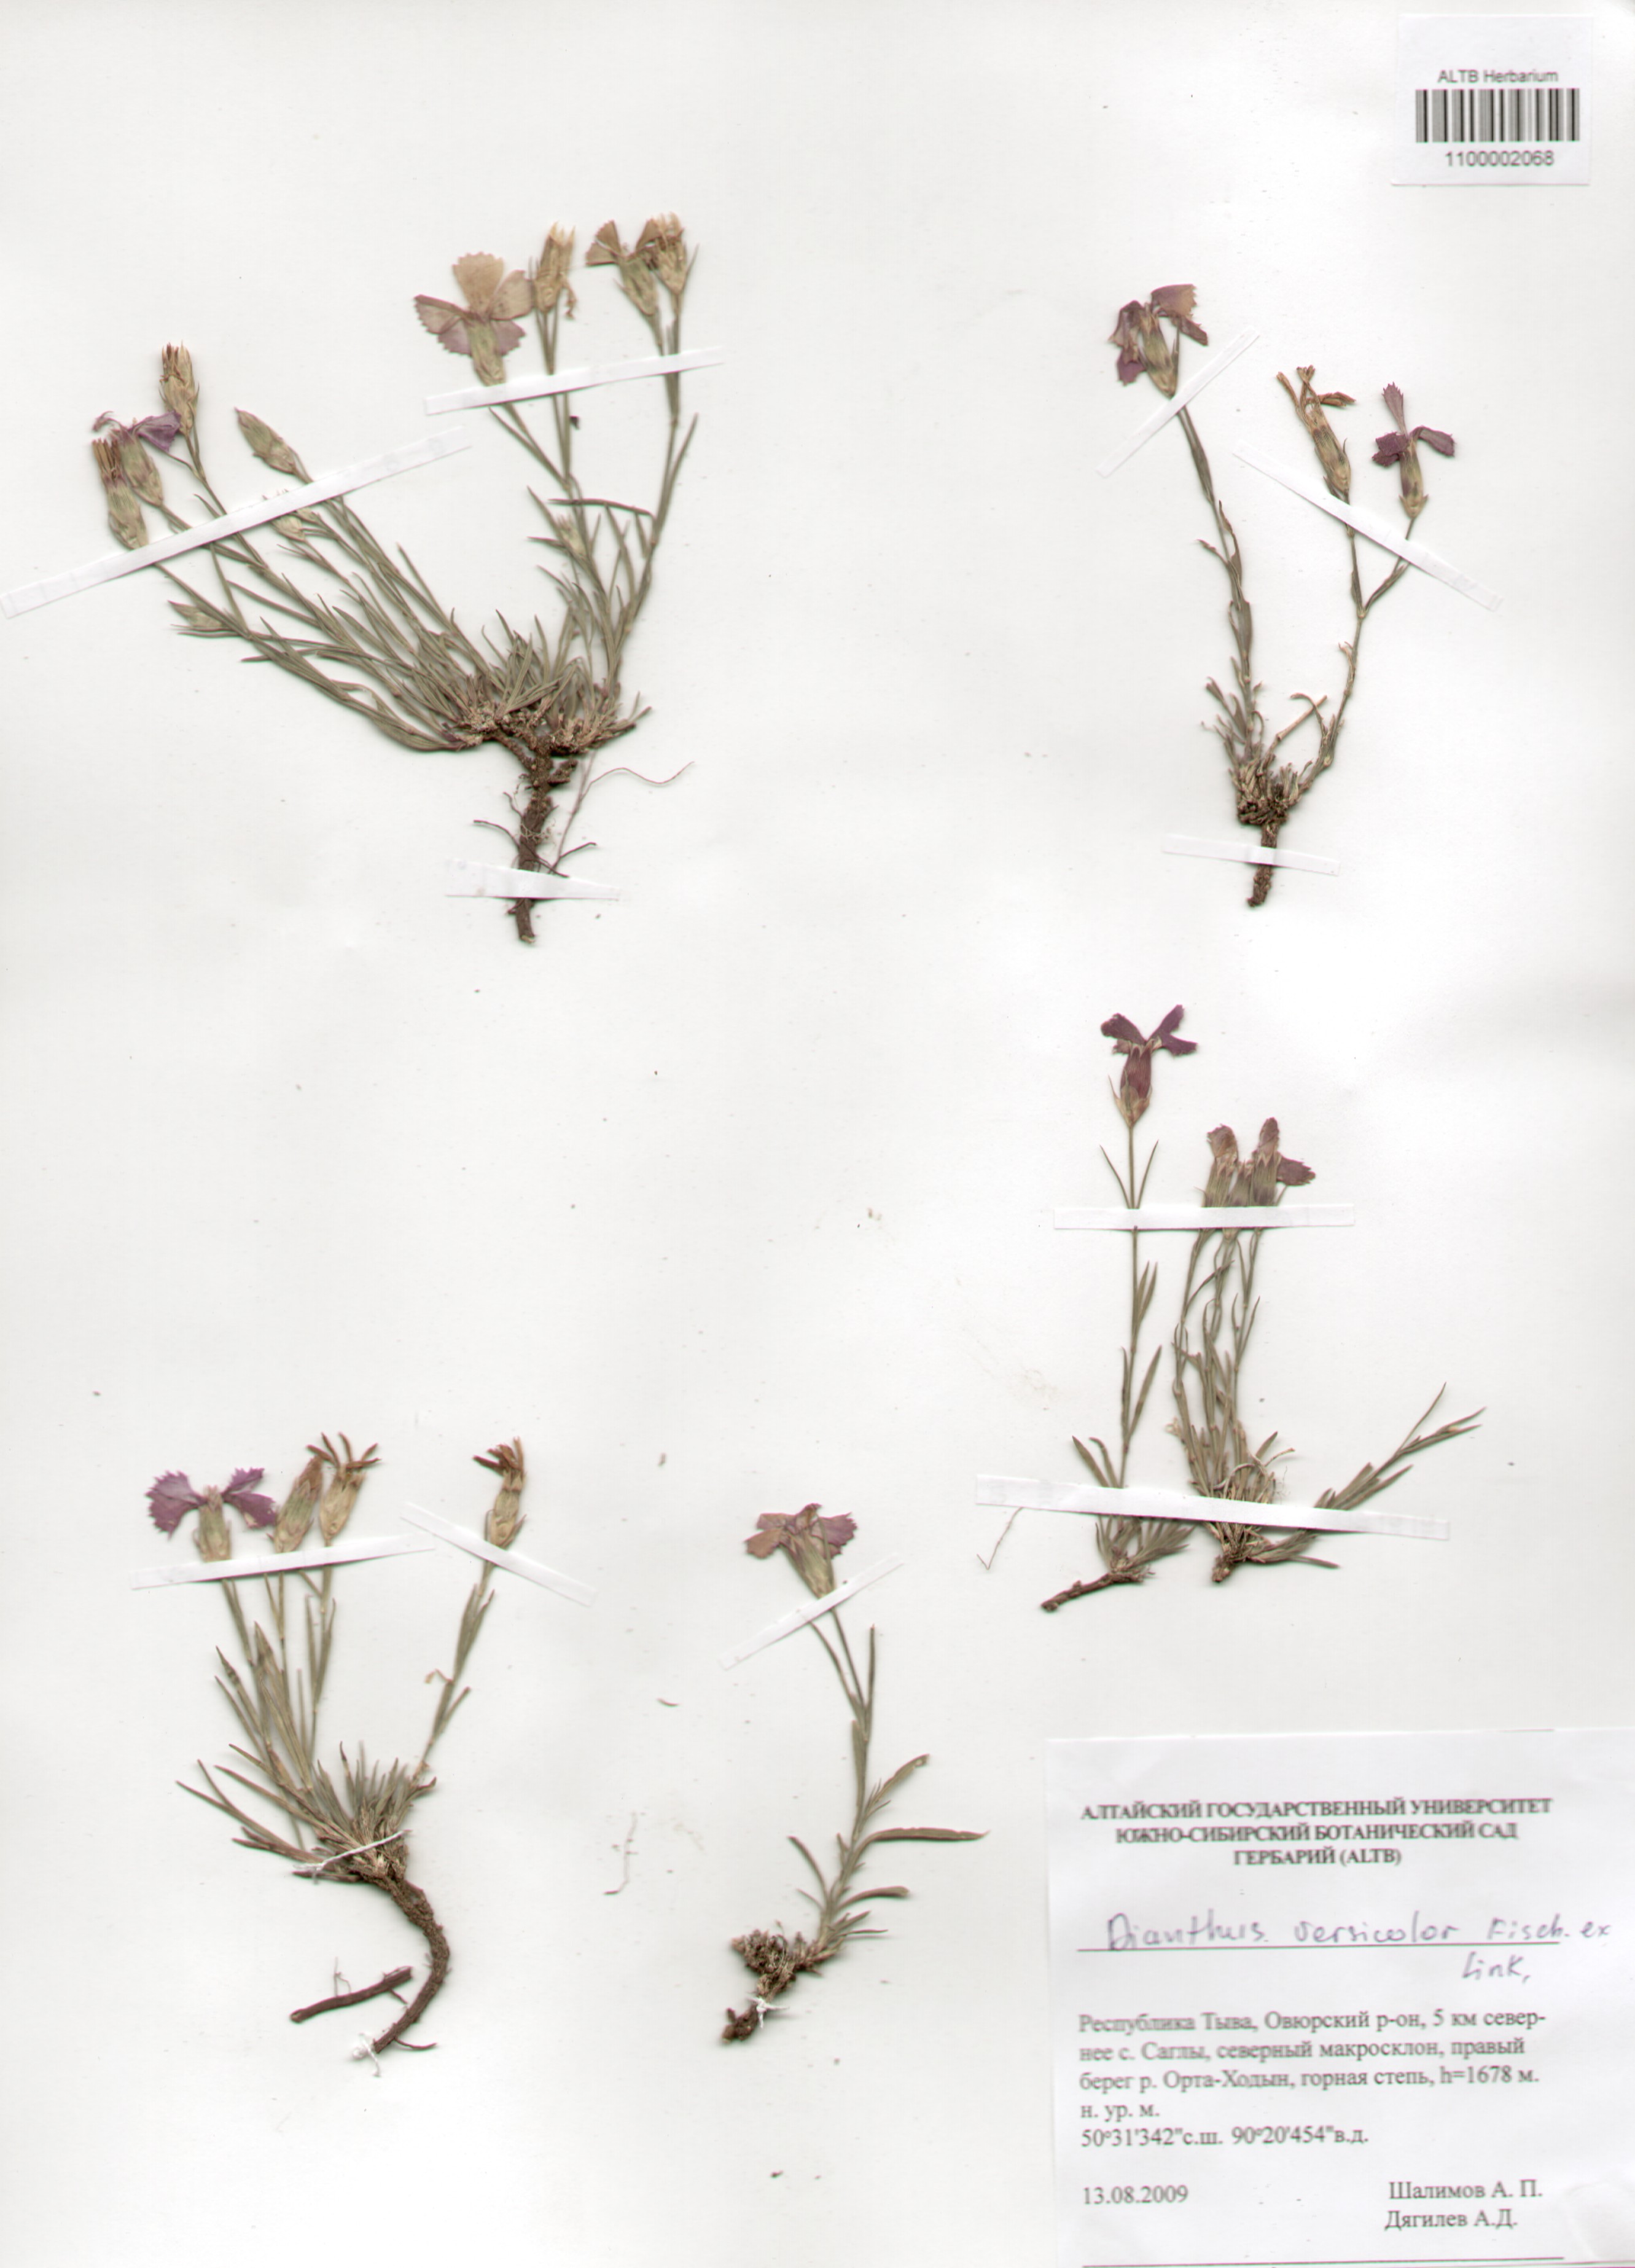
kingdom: Plantae
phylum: Tracheophyta
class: Magnoliopsida
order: Caryophyllales
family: Caryophyllaceae
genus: Dianthus
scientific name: Dianthus chinensis
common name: Rainbow pink
